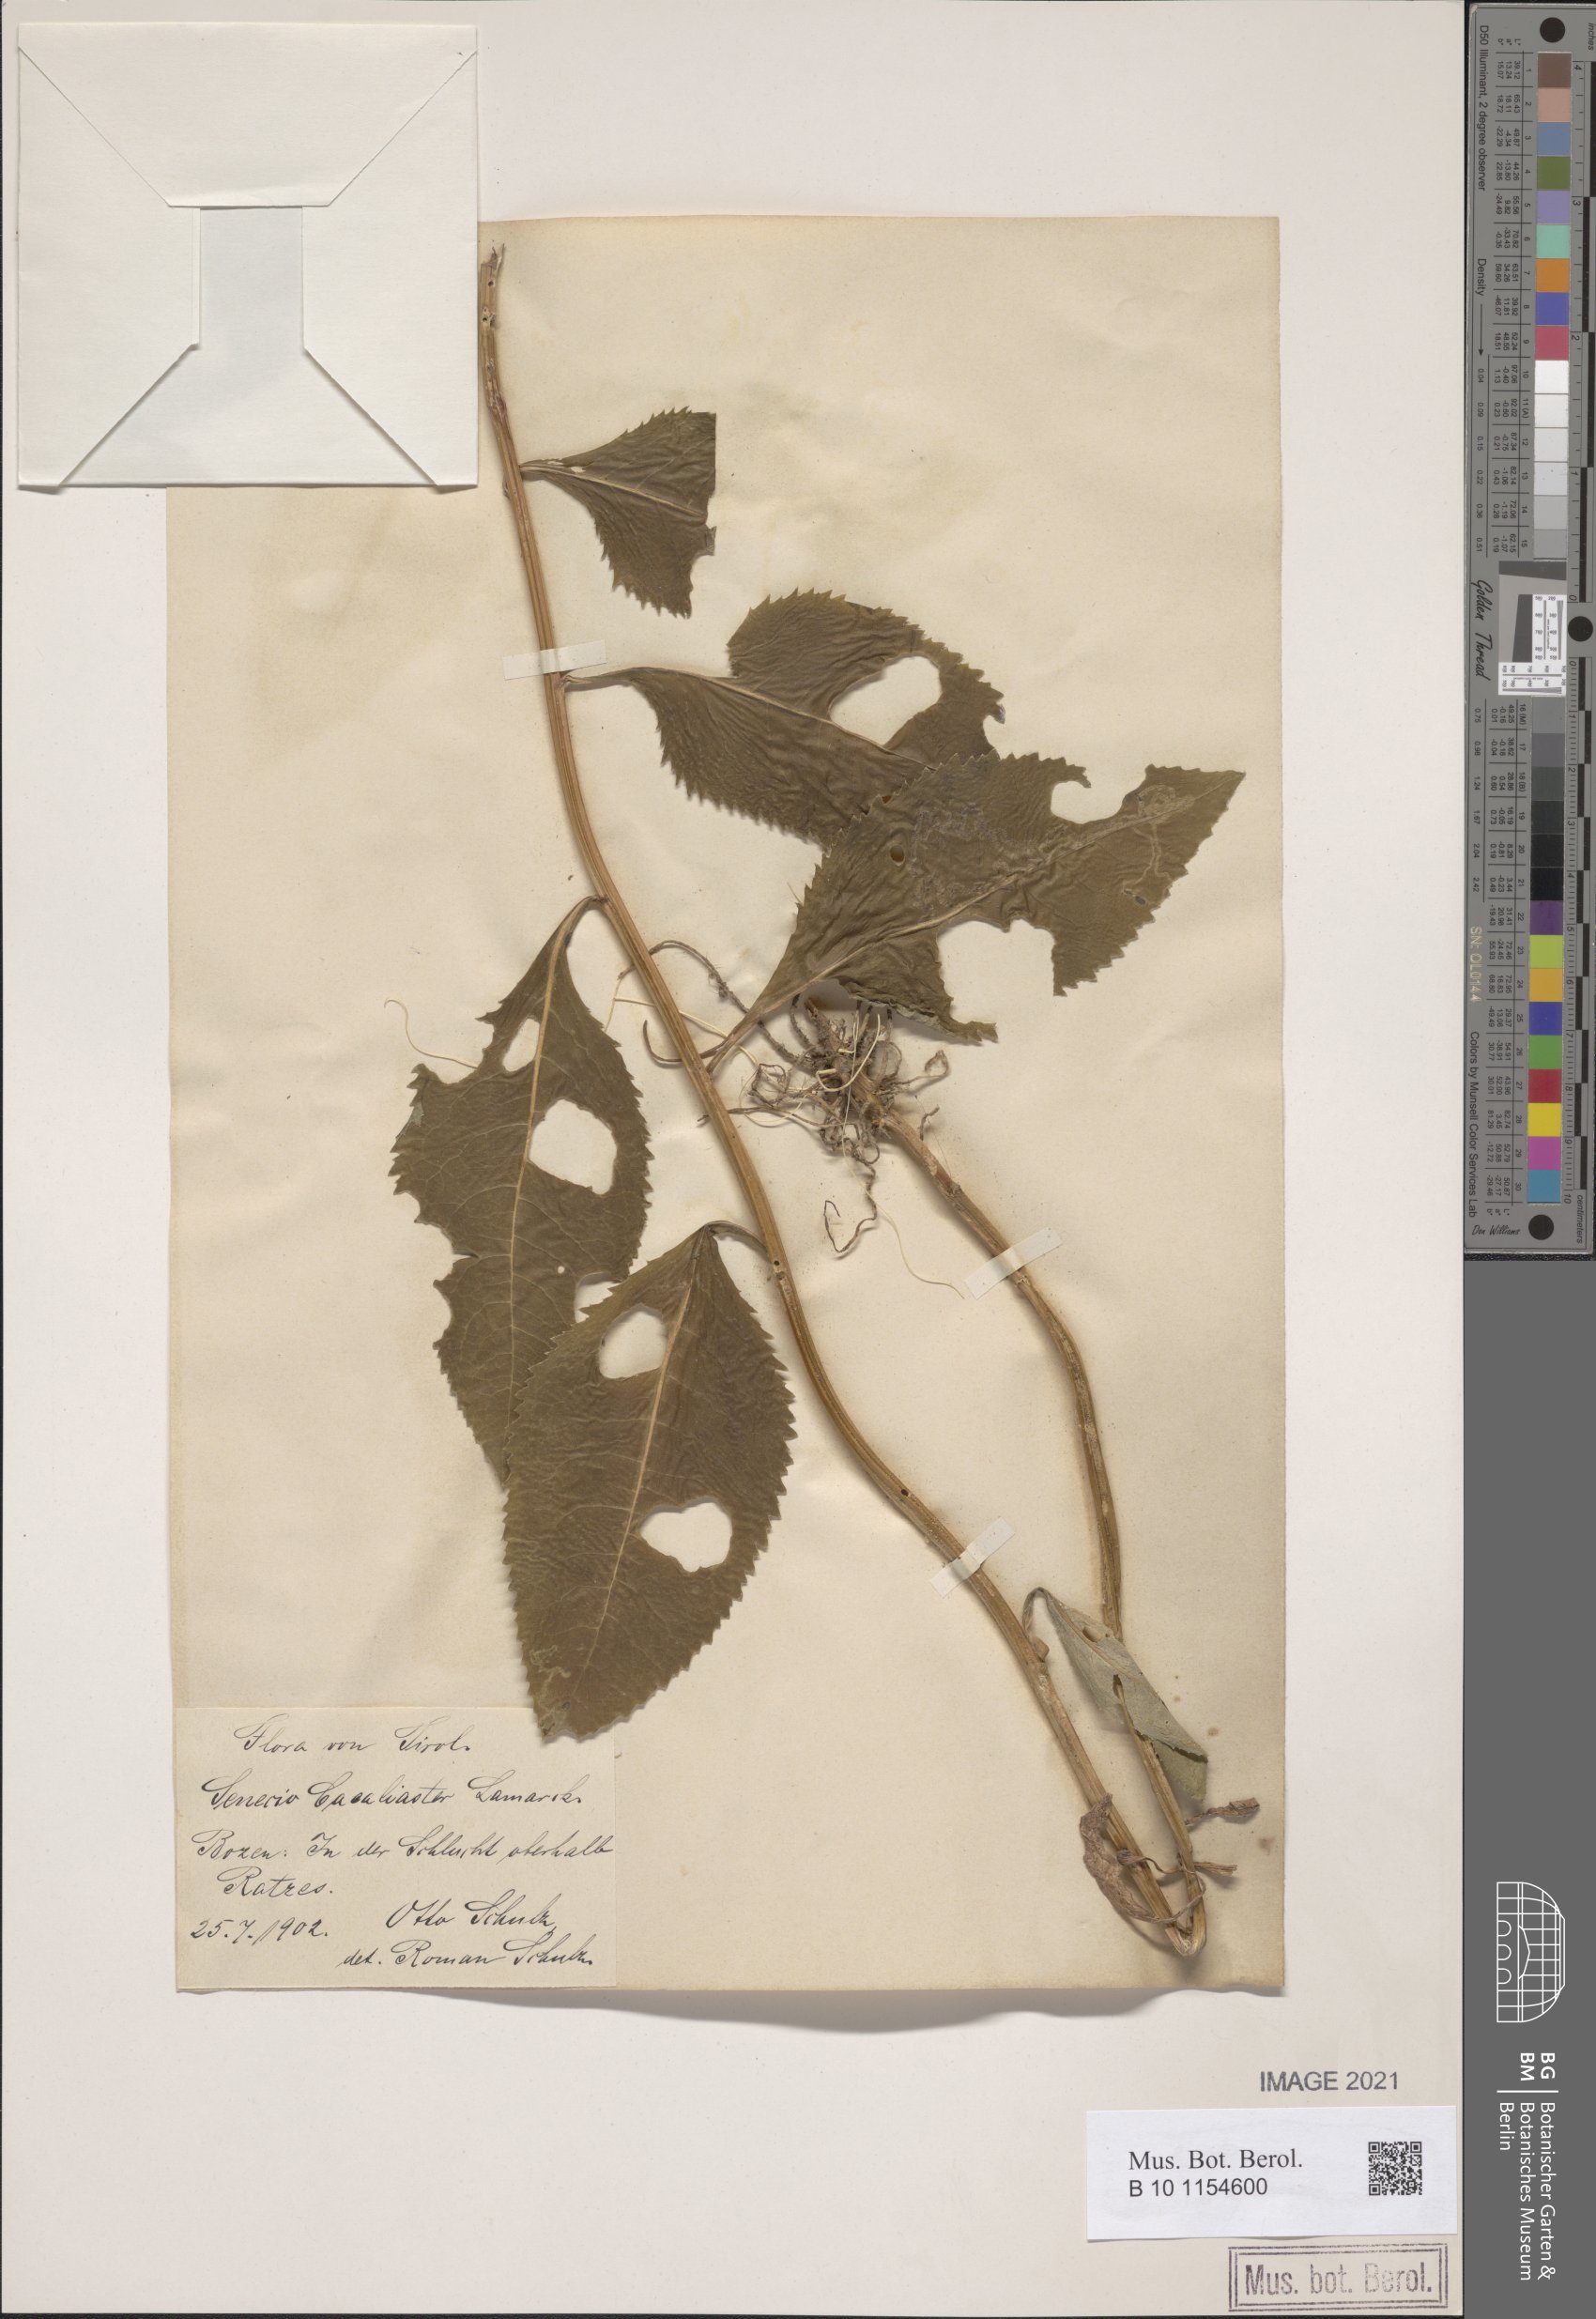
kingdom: Plantae
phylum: Tracheophyta
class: Magnoliopsida
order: Asterales
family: Asteraceae
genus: Senecio
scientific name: Senecio cacaliaster
